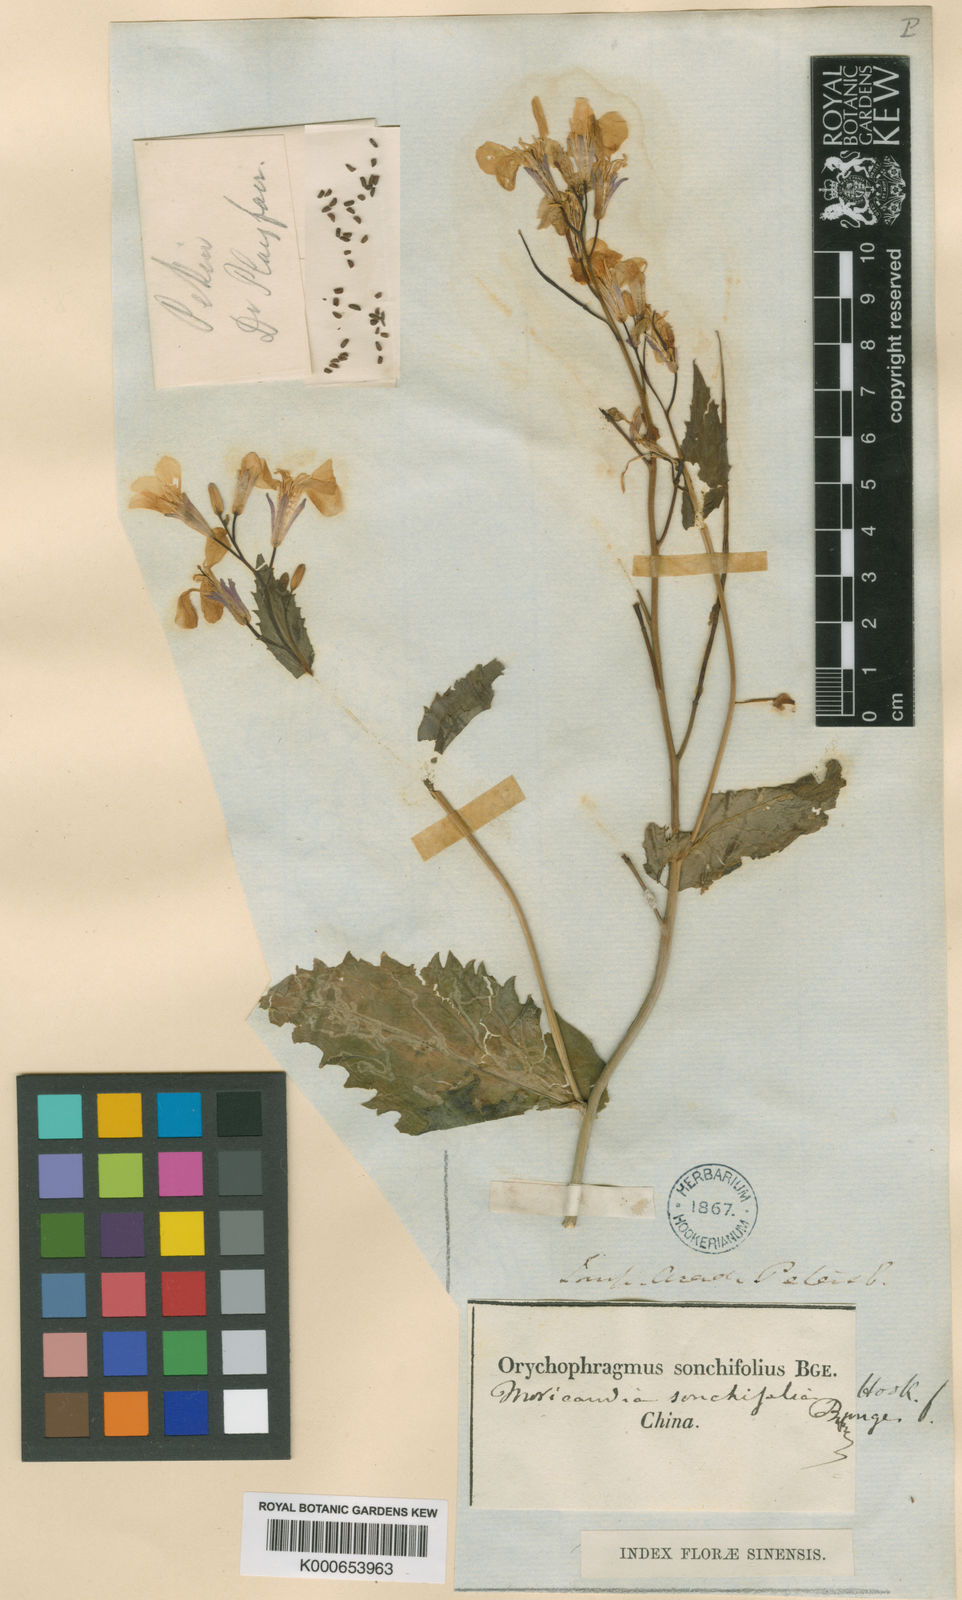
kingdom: Plantae
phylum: Tracheophyta
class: Magnoliopsida
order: Brassicales
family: Brassicaceae
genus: Douepea
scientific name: Douepea
